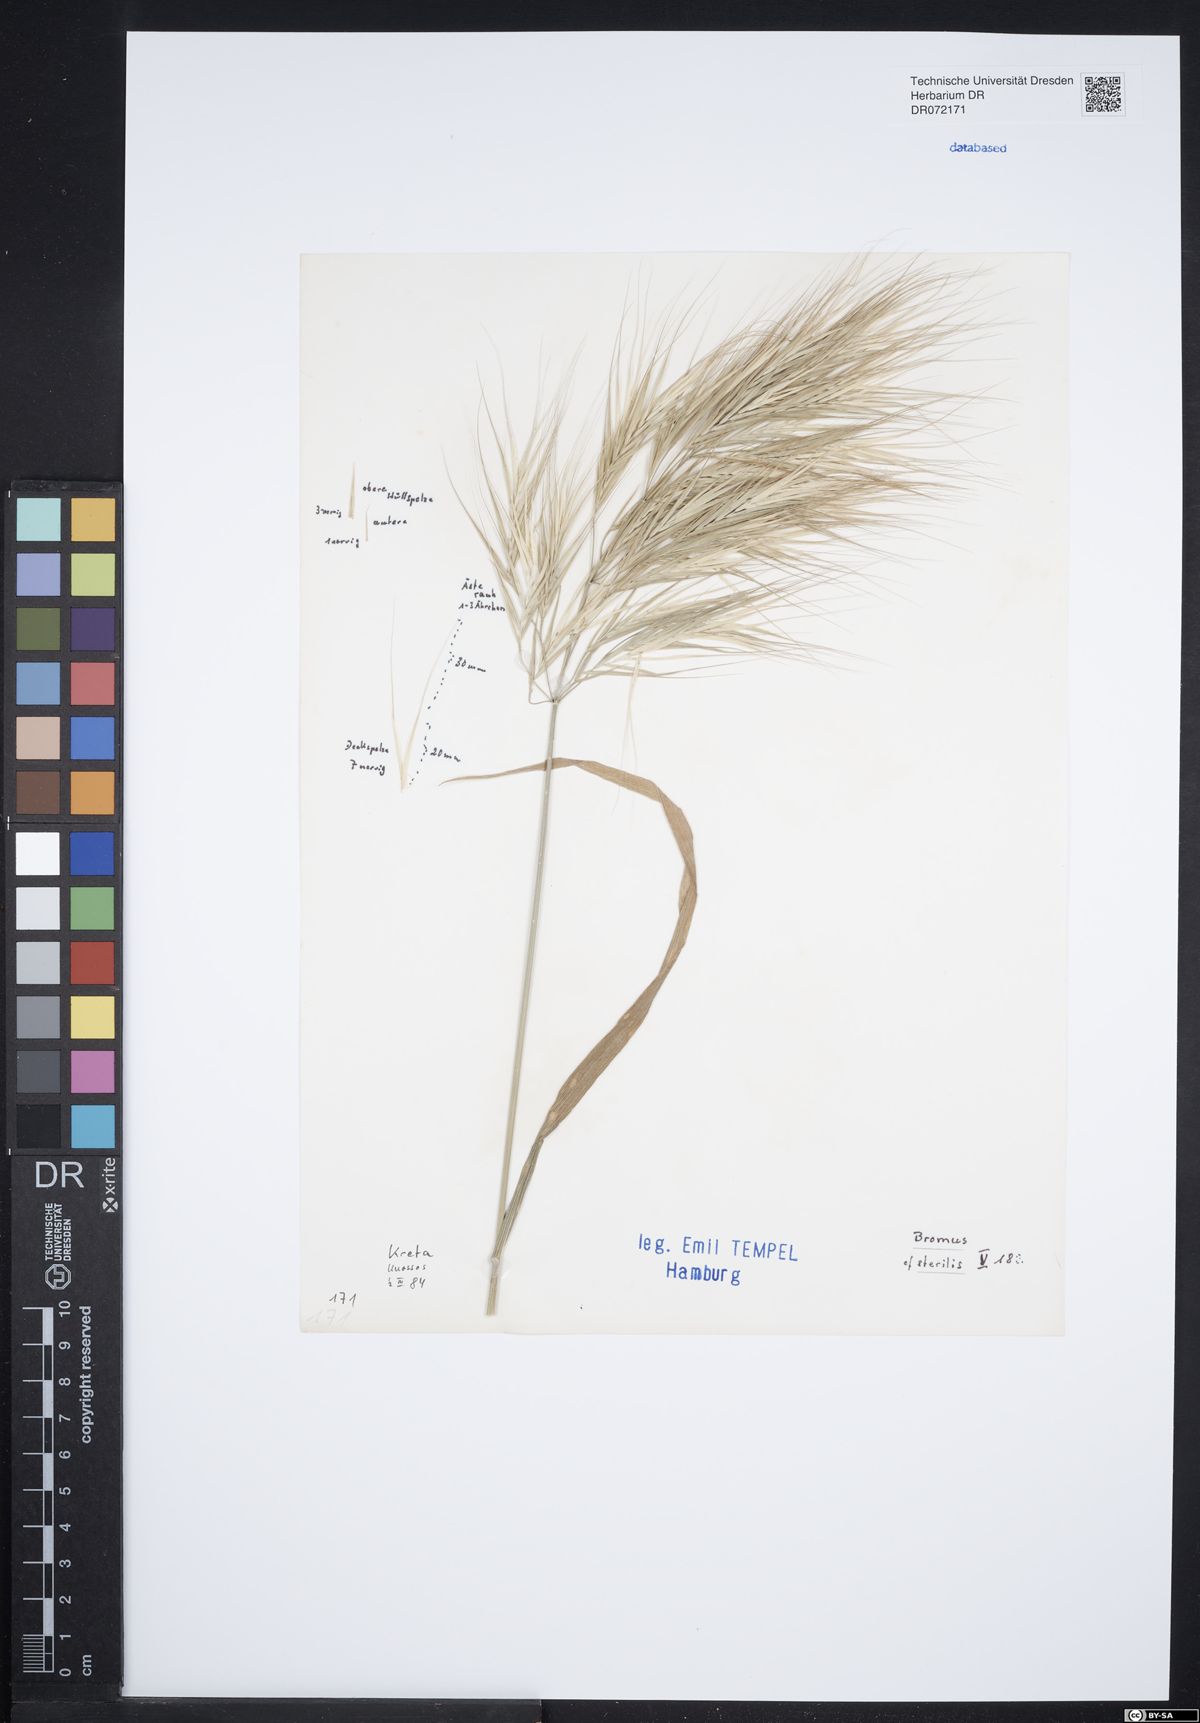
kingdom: Plantae
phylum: Tracheophyta
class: Liliopsida
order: Poales
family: Poaceae
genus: Bromus
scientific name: Bromus sterilis
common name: Poverty brome
